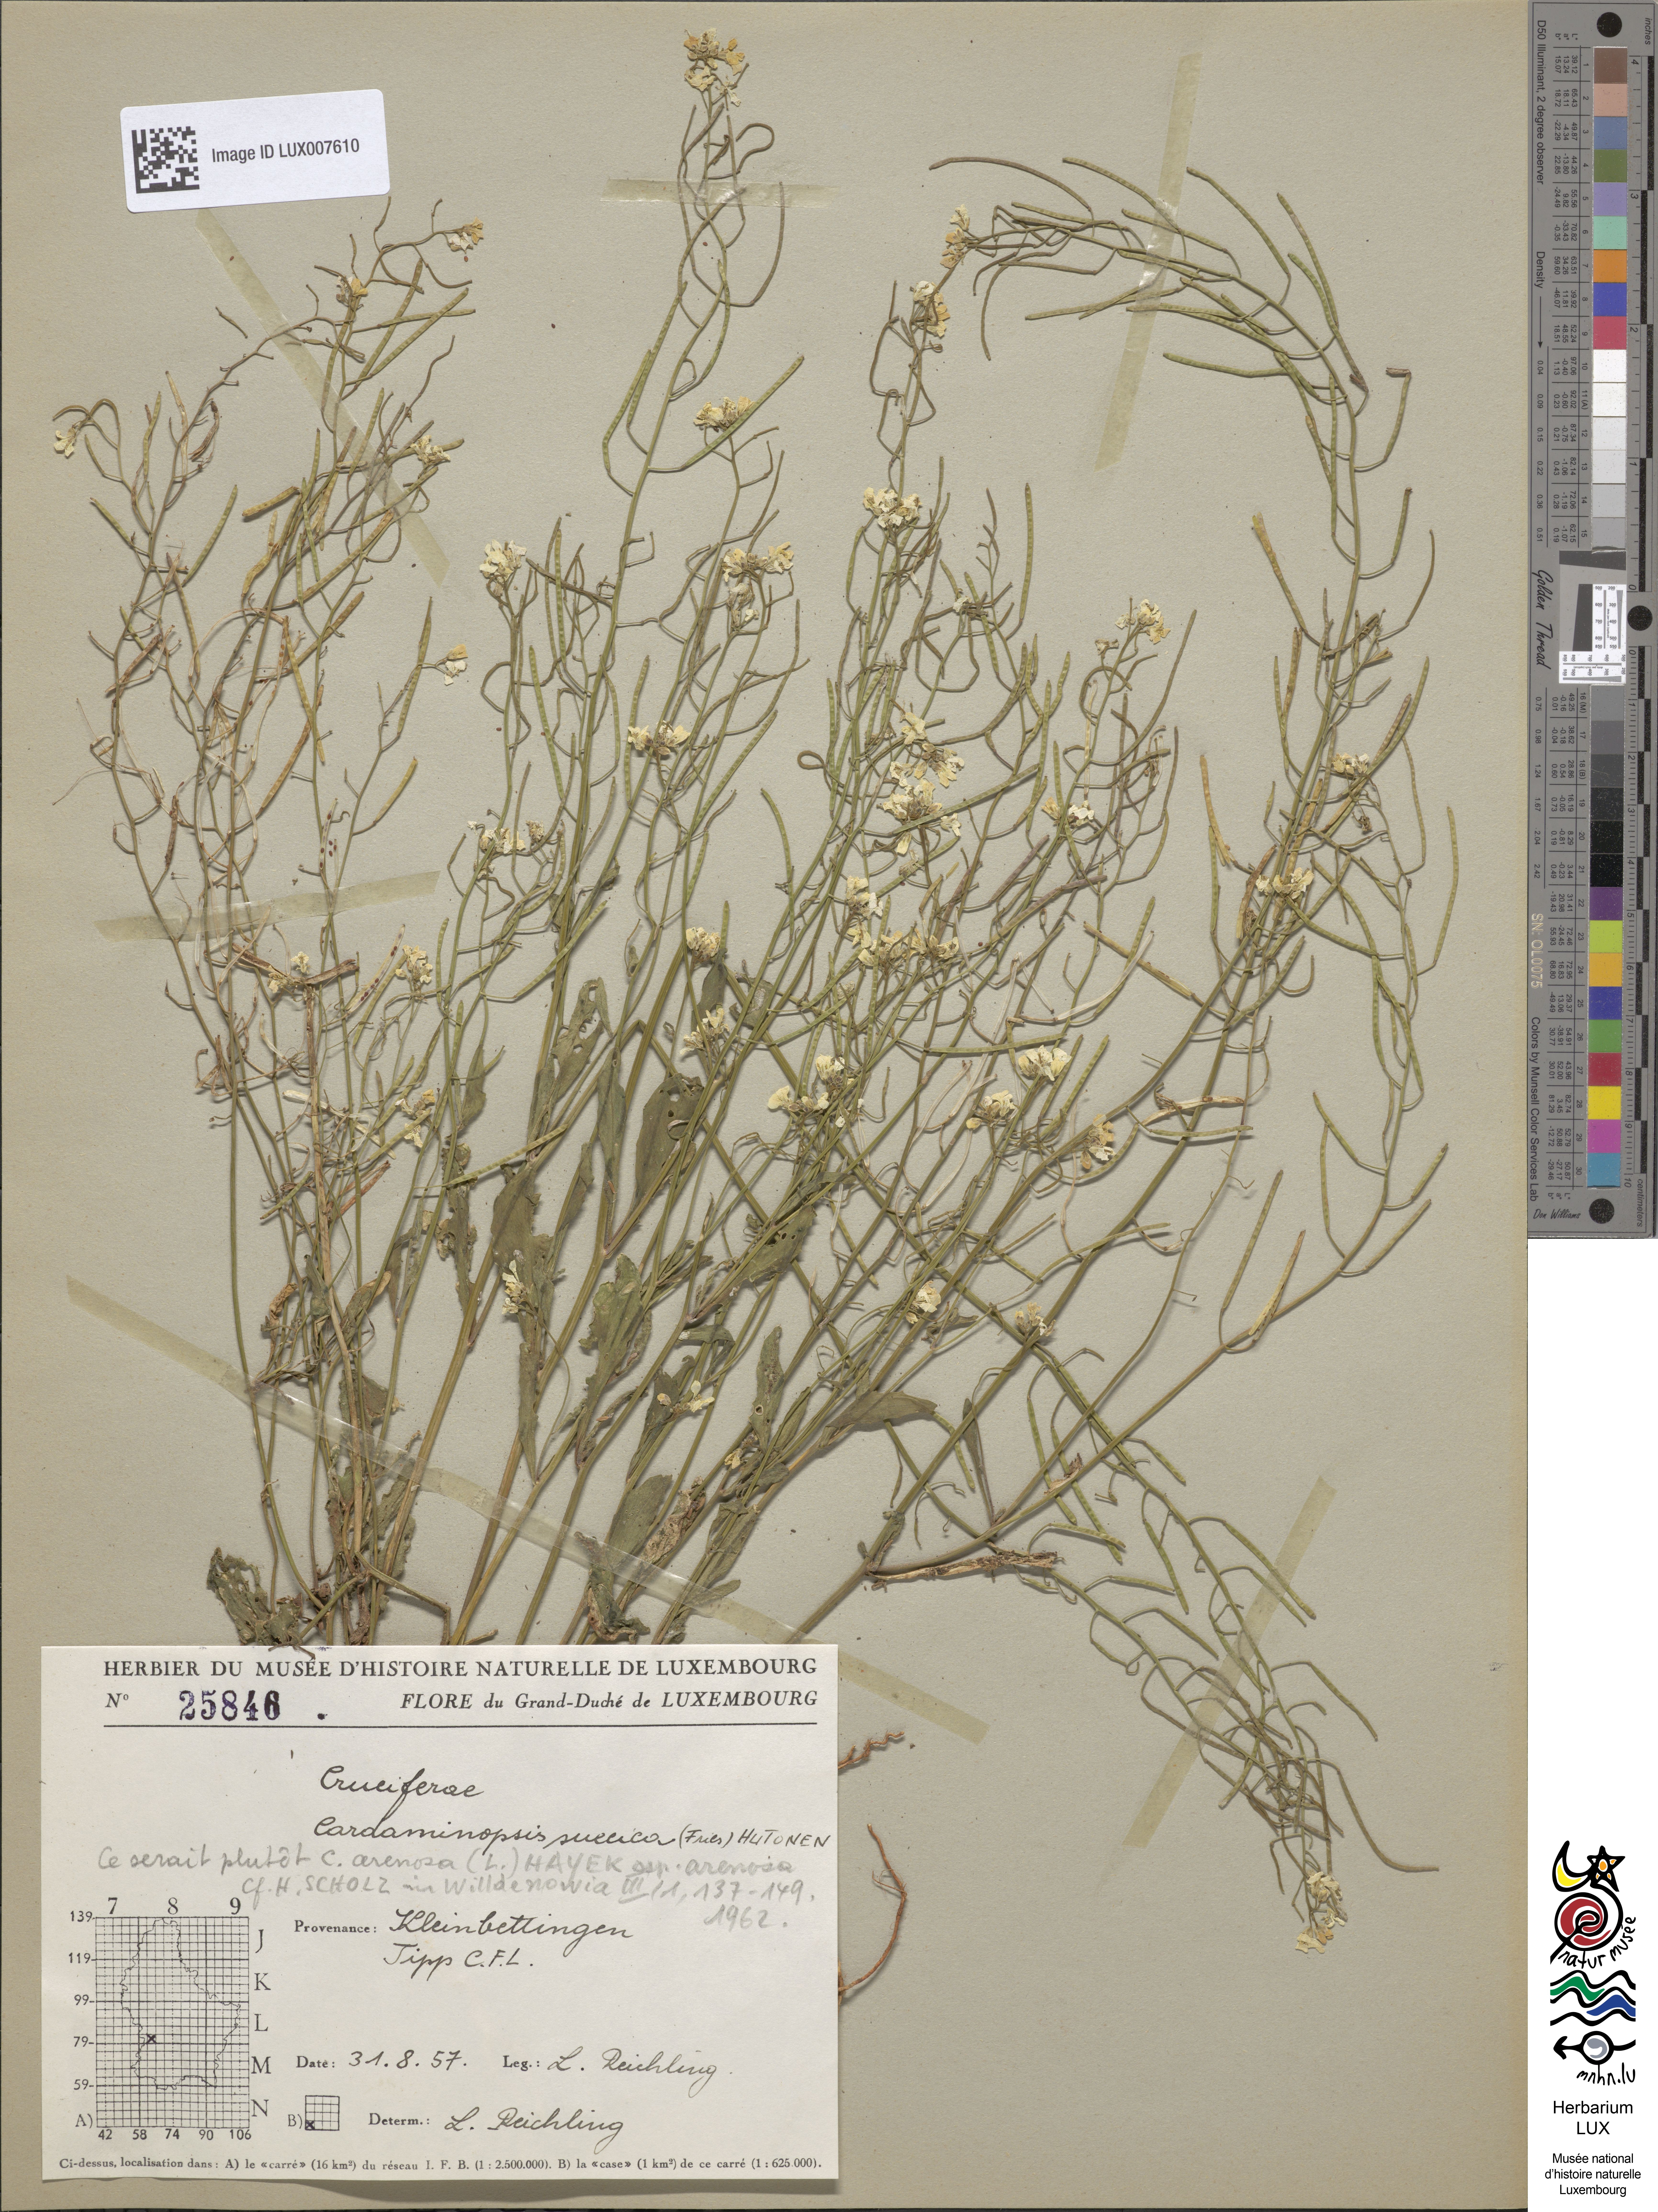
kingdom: Plantae
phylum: Tracheophyta
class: Magnoliopsida
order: Brassicales
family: Brassicaceae
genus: Arabidopsis
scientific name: Arabidopsis arenosa
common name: Sand rock-cress
